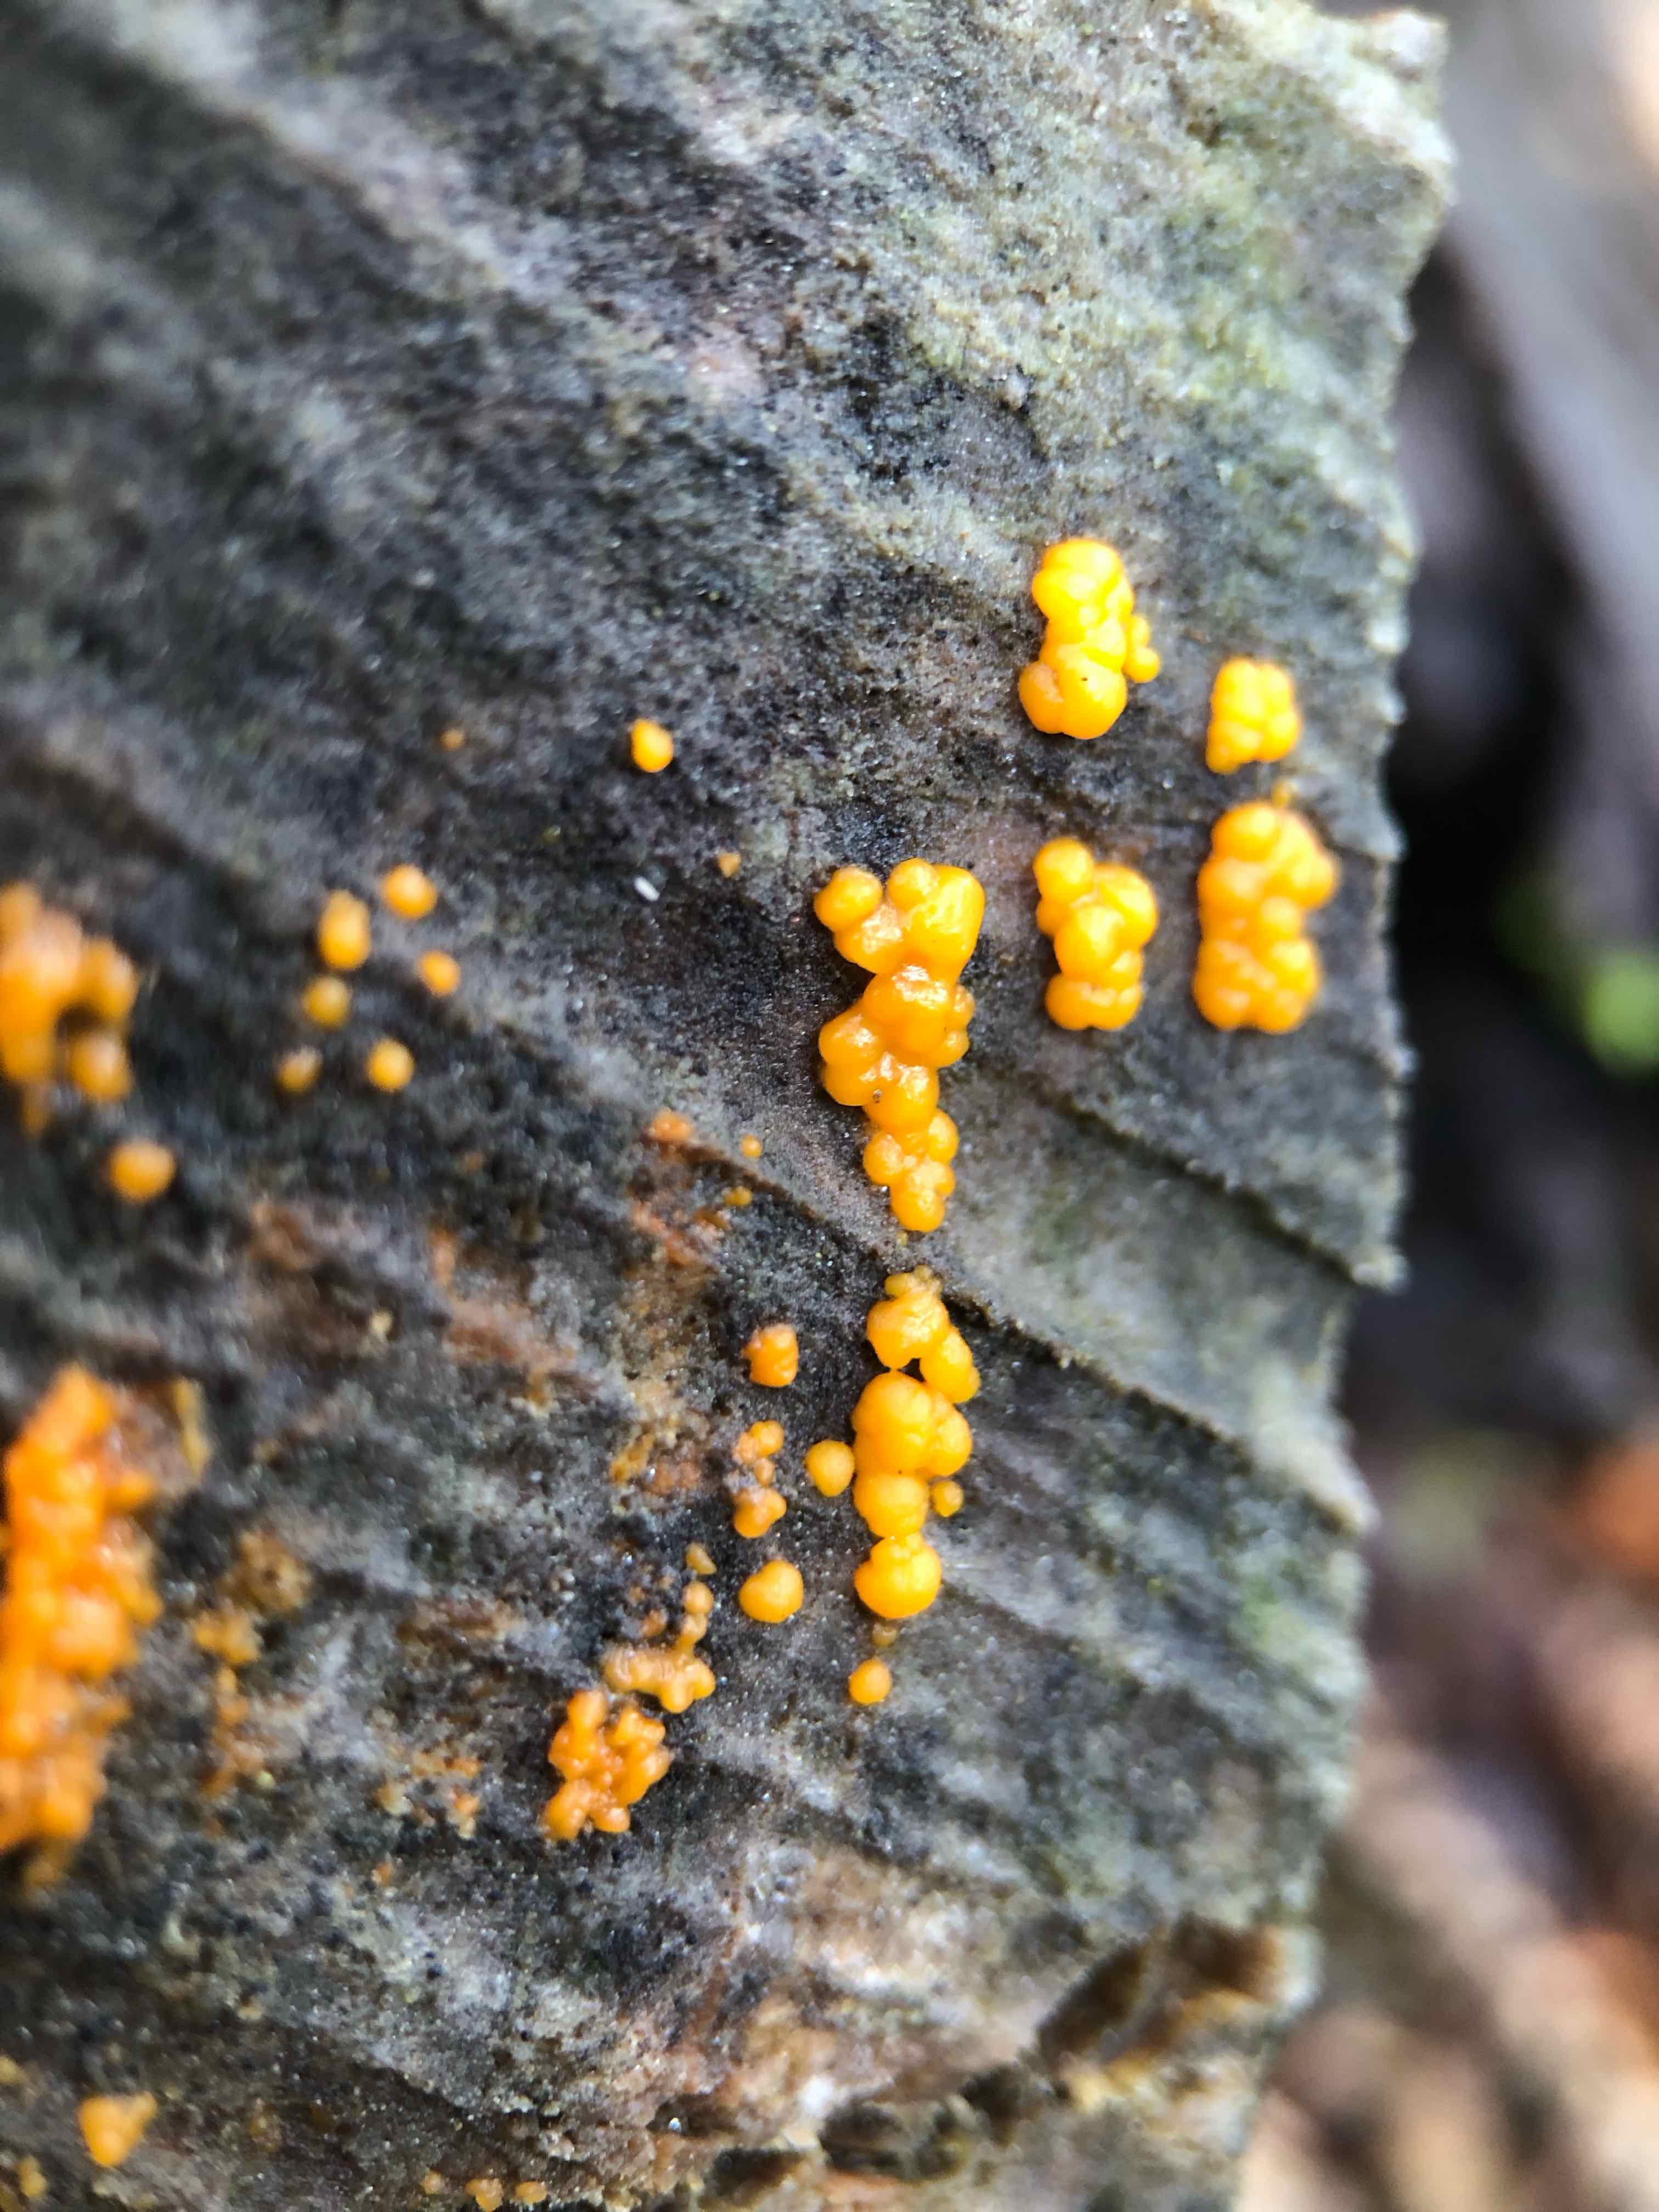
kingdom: Fungi
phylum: Basidiomycota
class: Dacrymycetes
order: Dacrymycetales
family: Dacrymycetaceae
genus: Dacrymyces
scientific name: Dacrymyces stillatus
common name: almindelig tåresvamp
